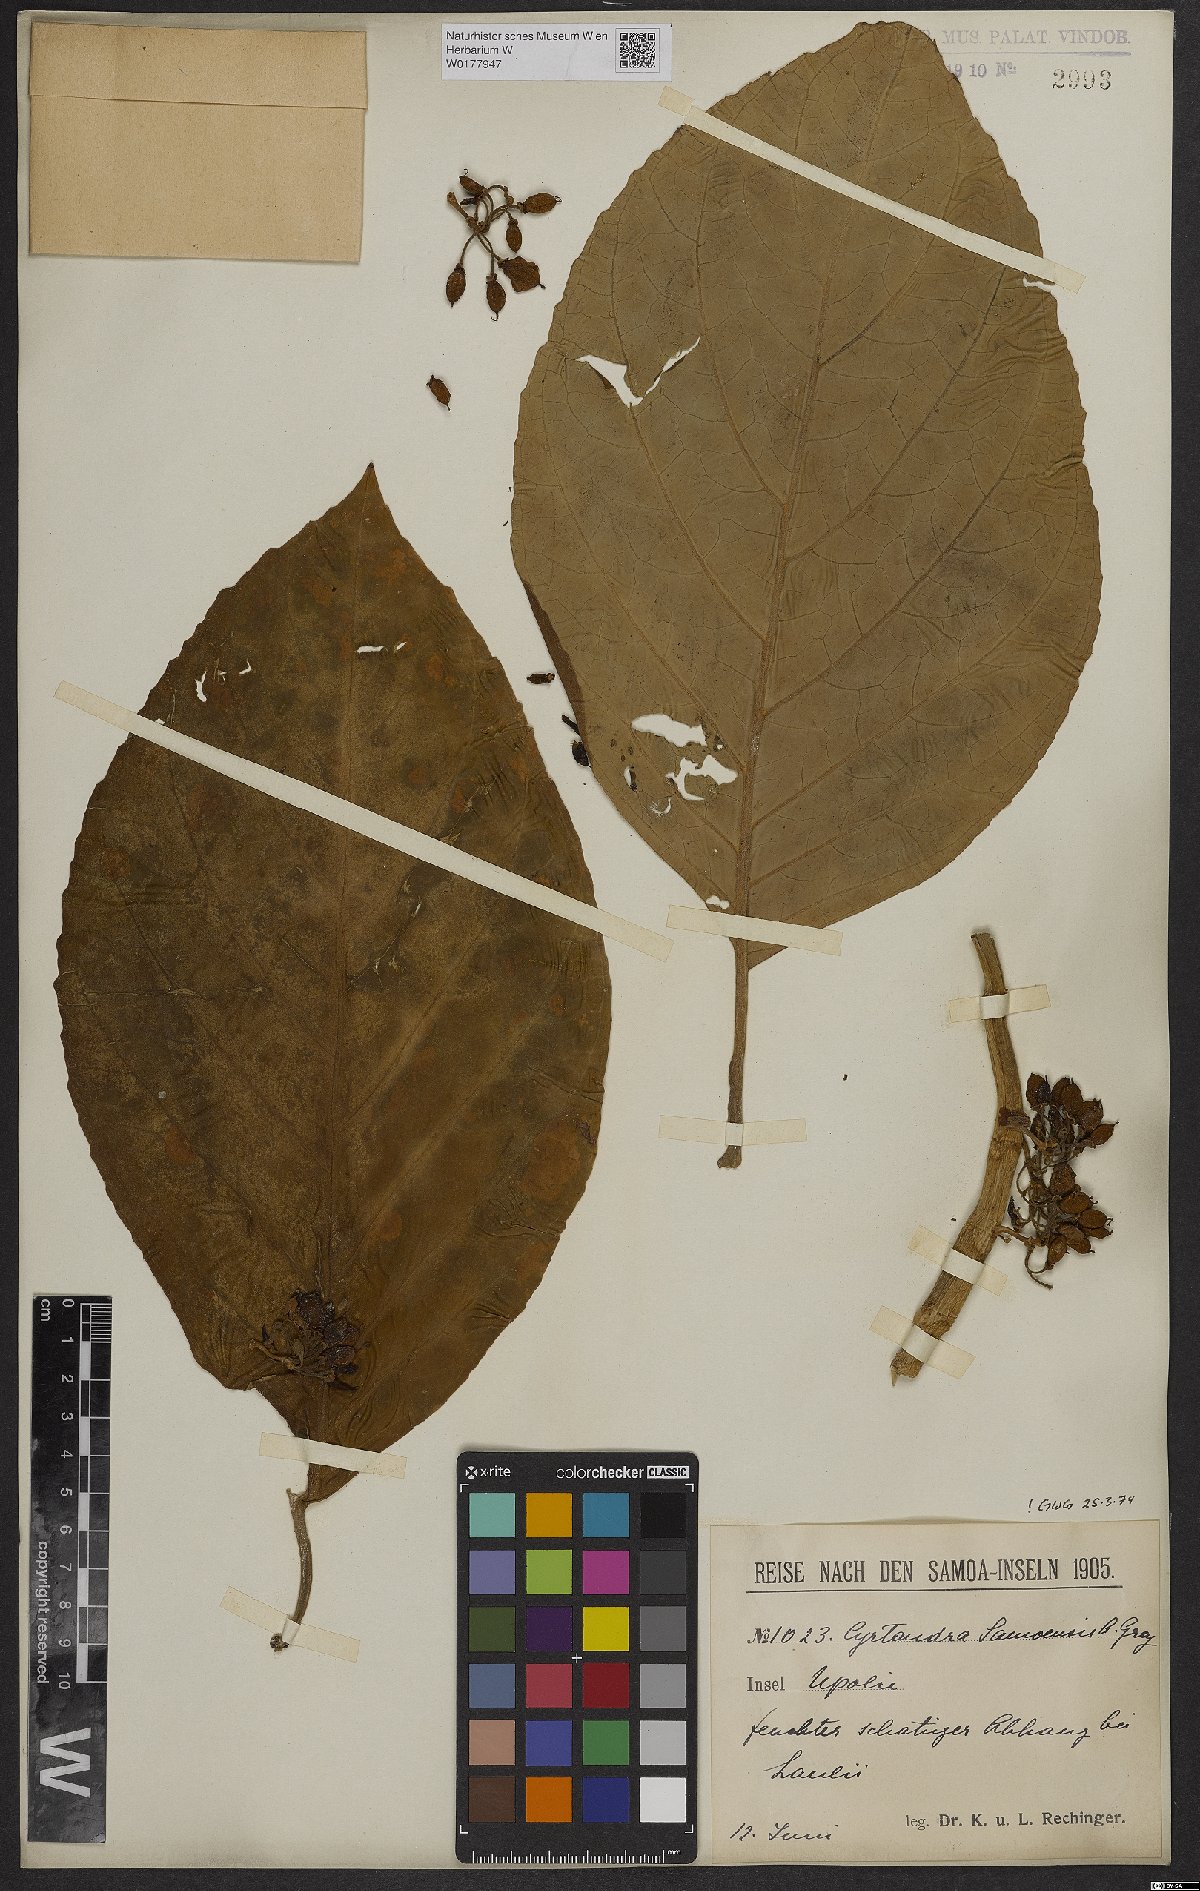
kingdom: Plantae
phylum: Tracheophyta
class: Magnoliopsida
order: Lamiales
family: Gesneriaceae
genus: Cyrtandra
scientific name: Cyrtandra samoensis
